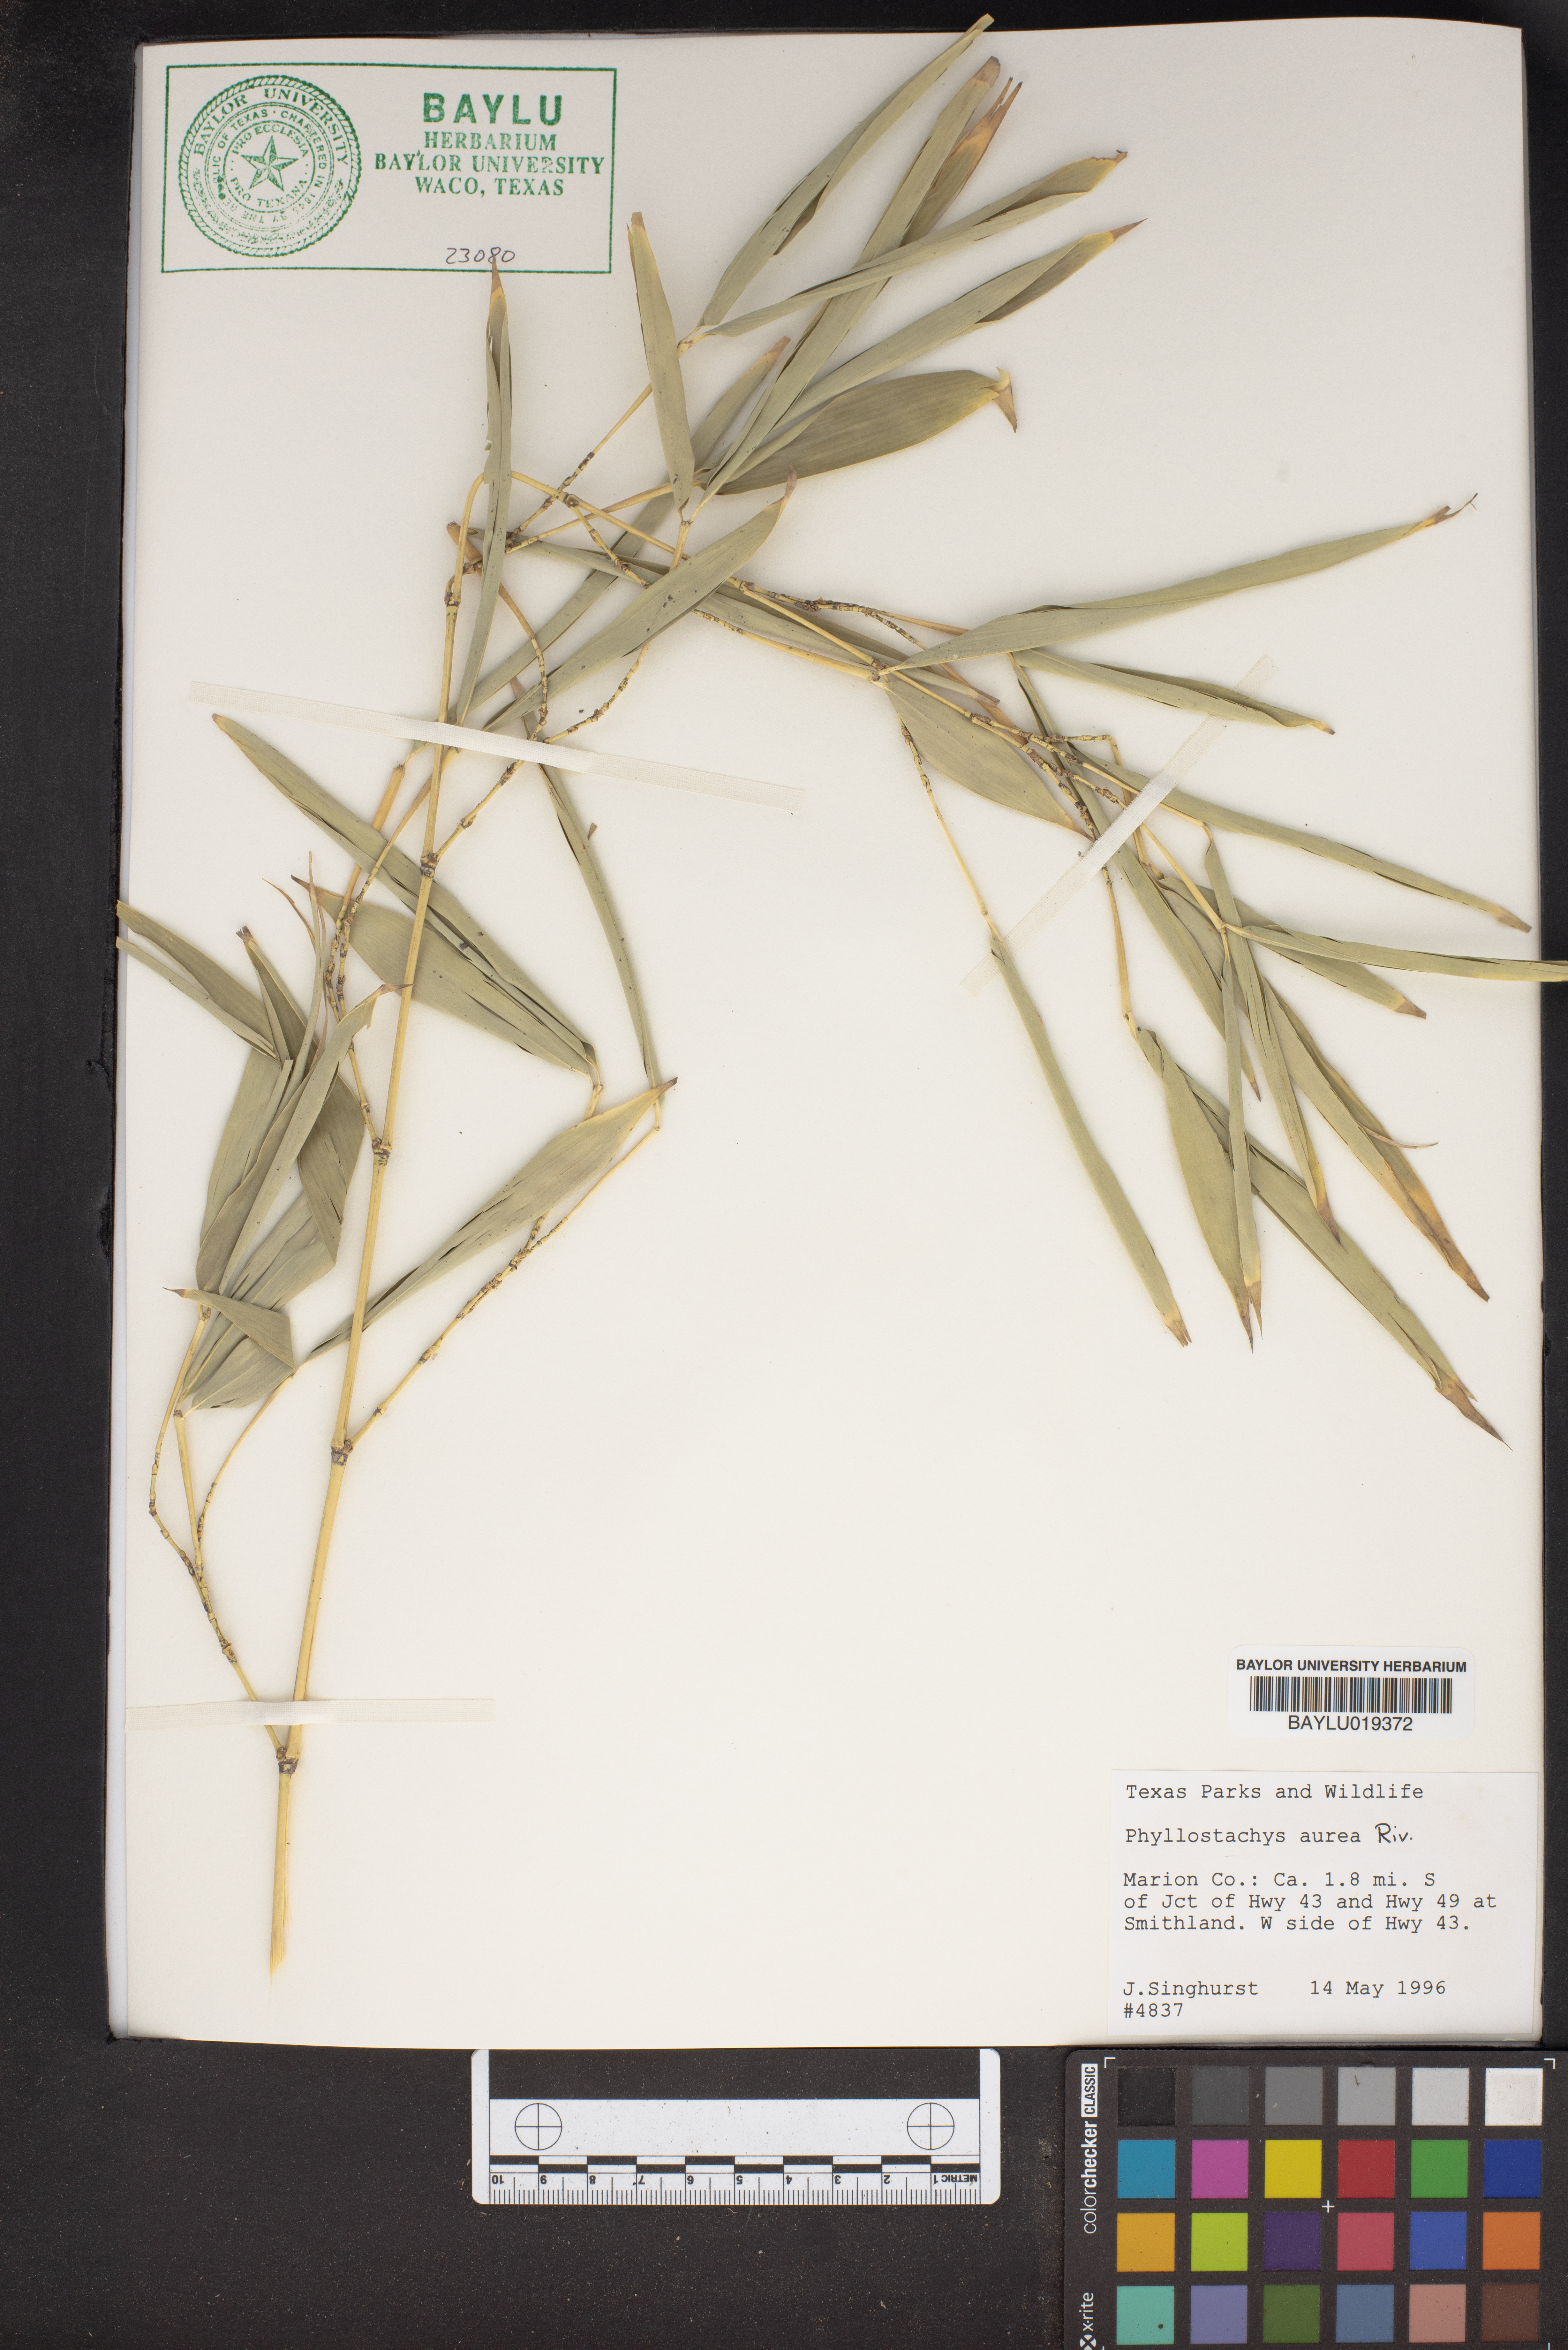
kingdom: Plantae
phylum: Tracheophyta
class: Liliopsida
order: Poales
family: Poaceae
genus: Phyllostachys
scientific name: Phyllostachys aurea
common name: Golden bamboo
